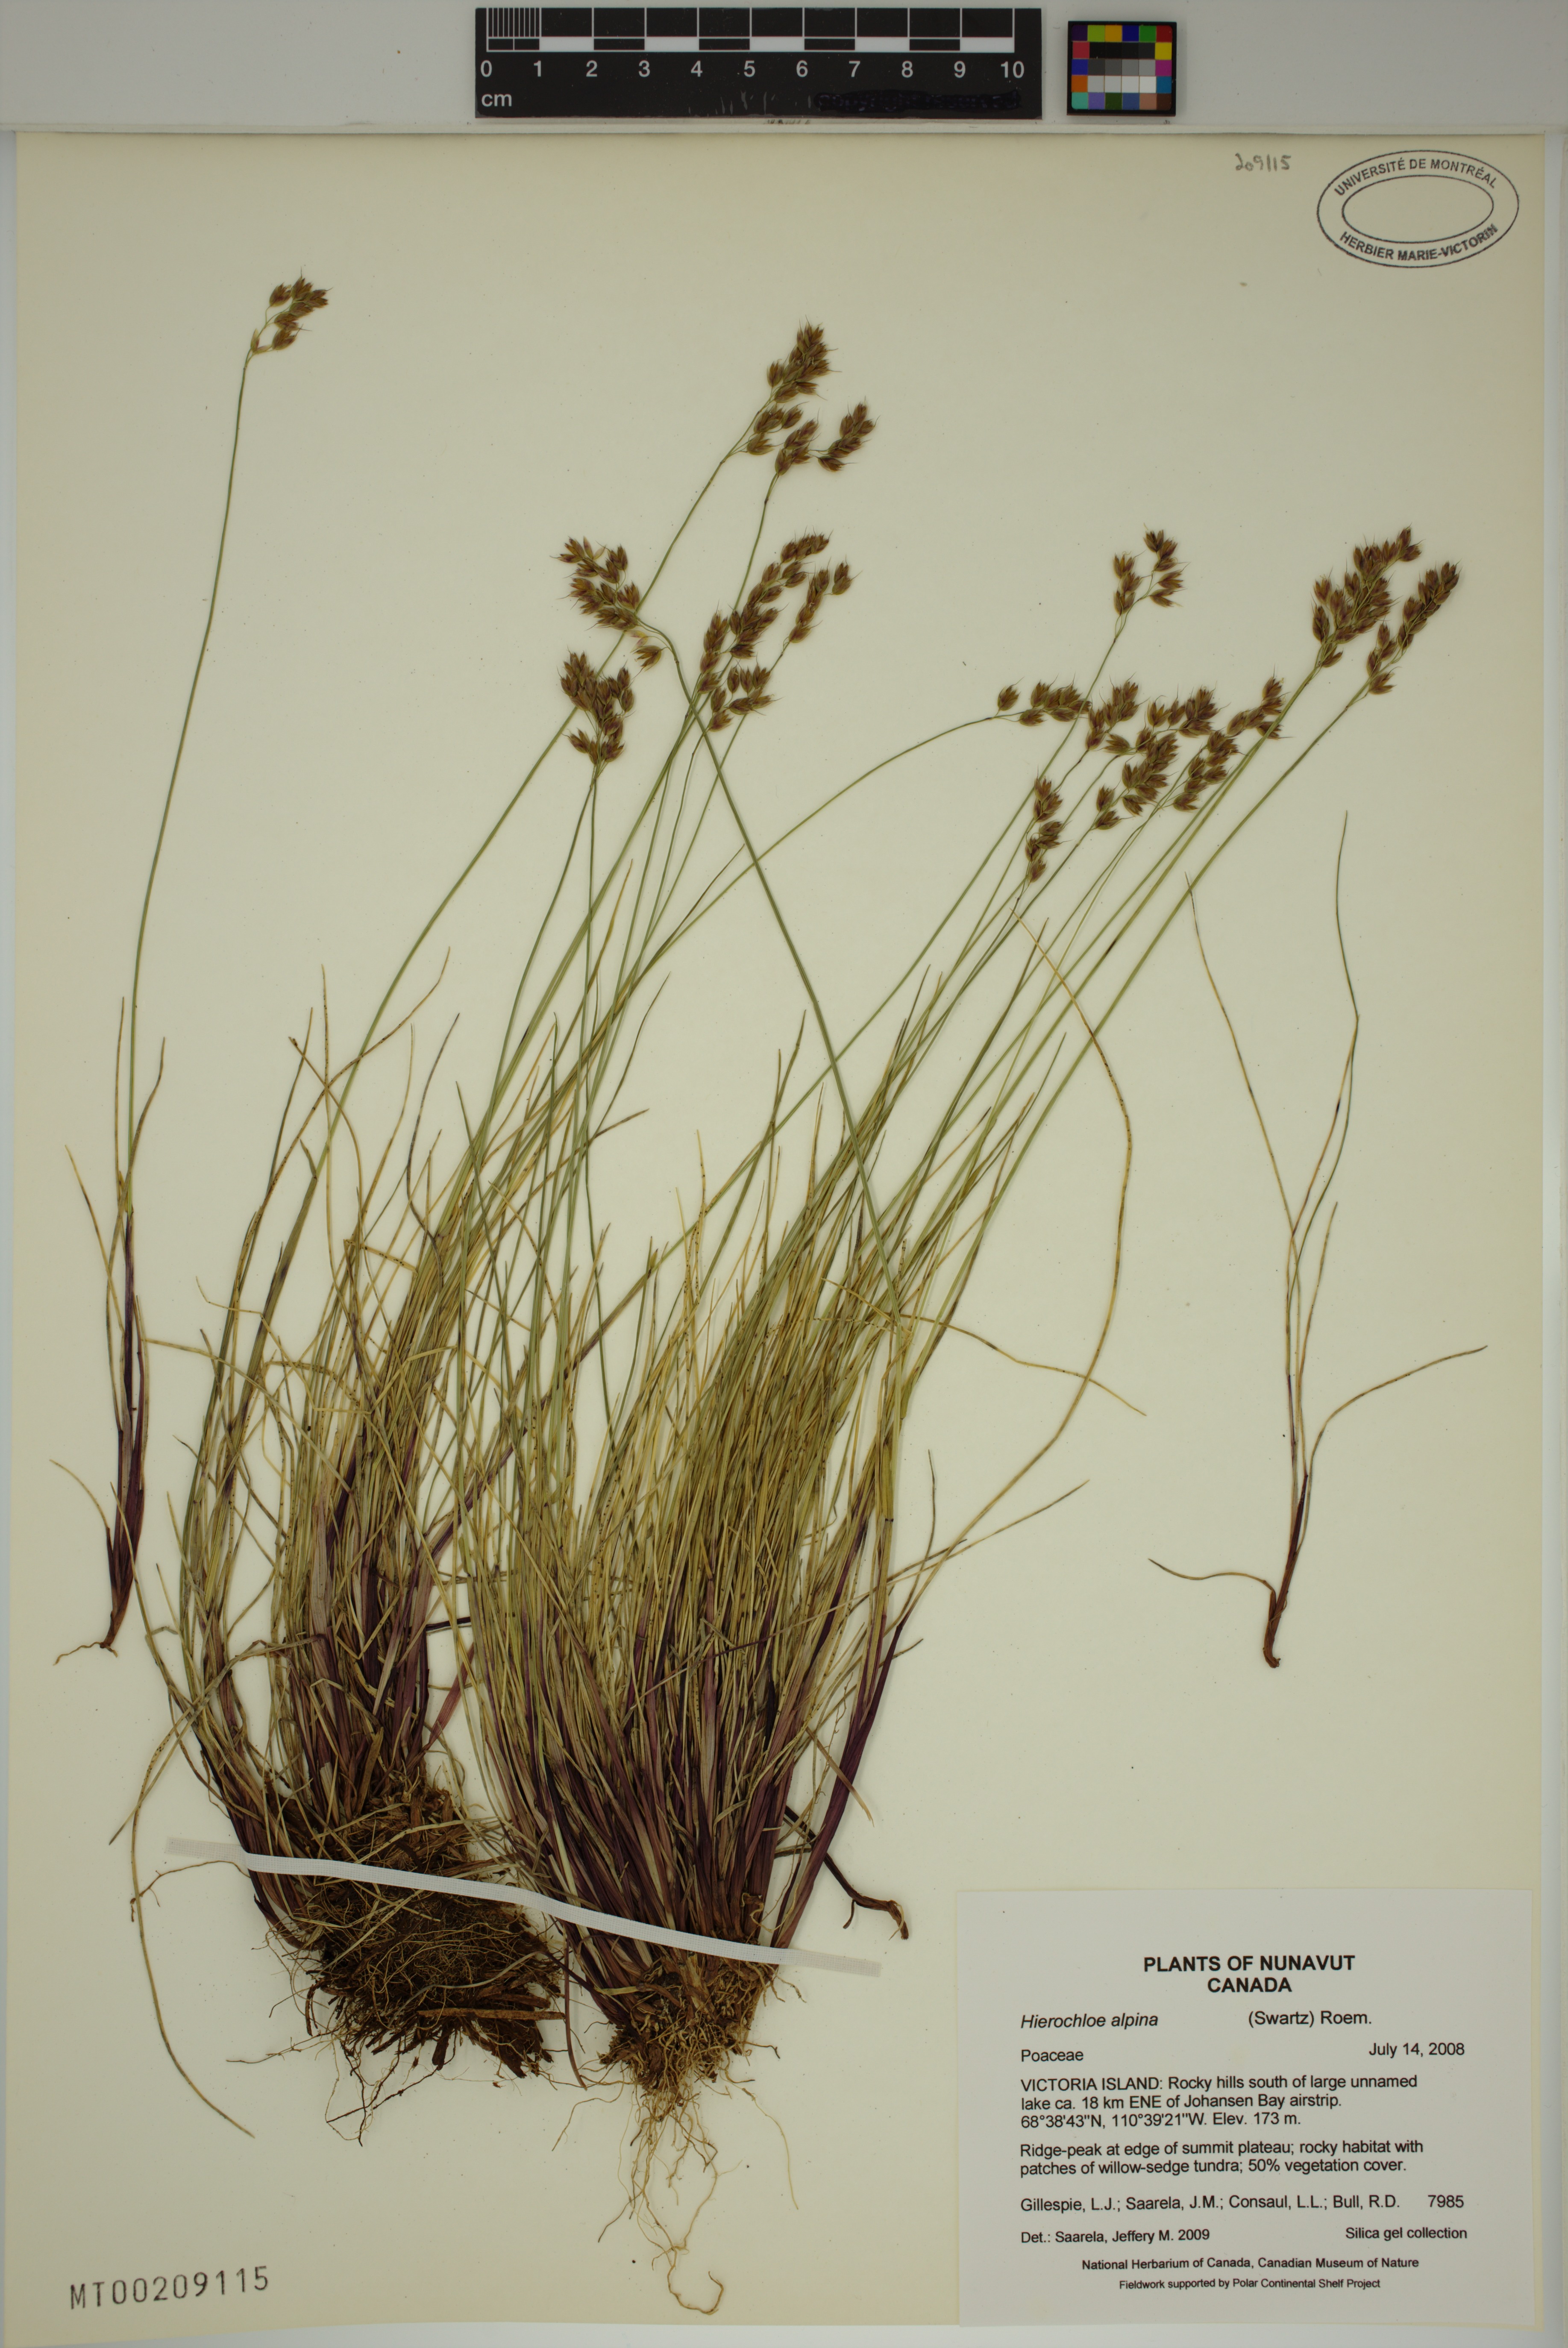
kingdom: Plantae
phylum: Tracheophyta
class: Liliopsida
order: Poales
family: Poaceae
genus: Anthoxanthum
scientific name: Anthoxanthum monticola
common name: Alpine sweetgrass
